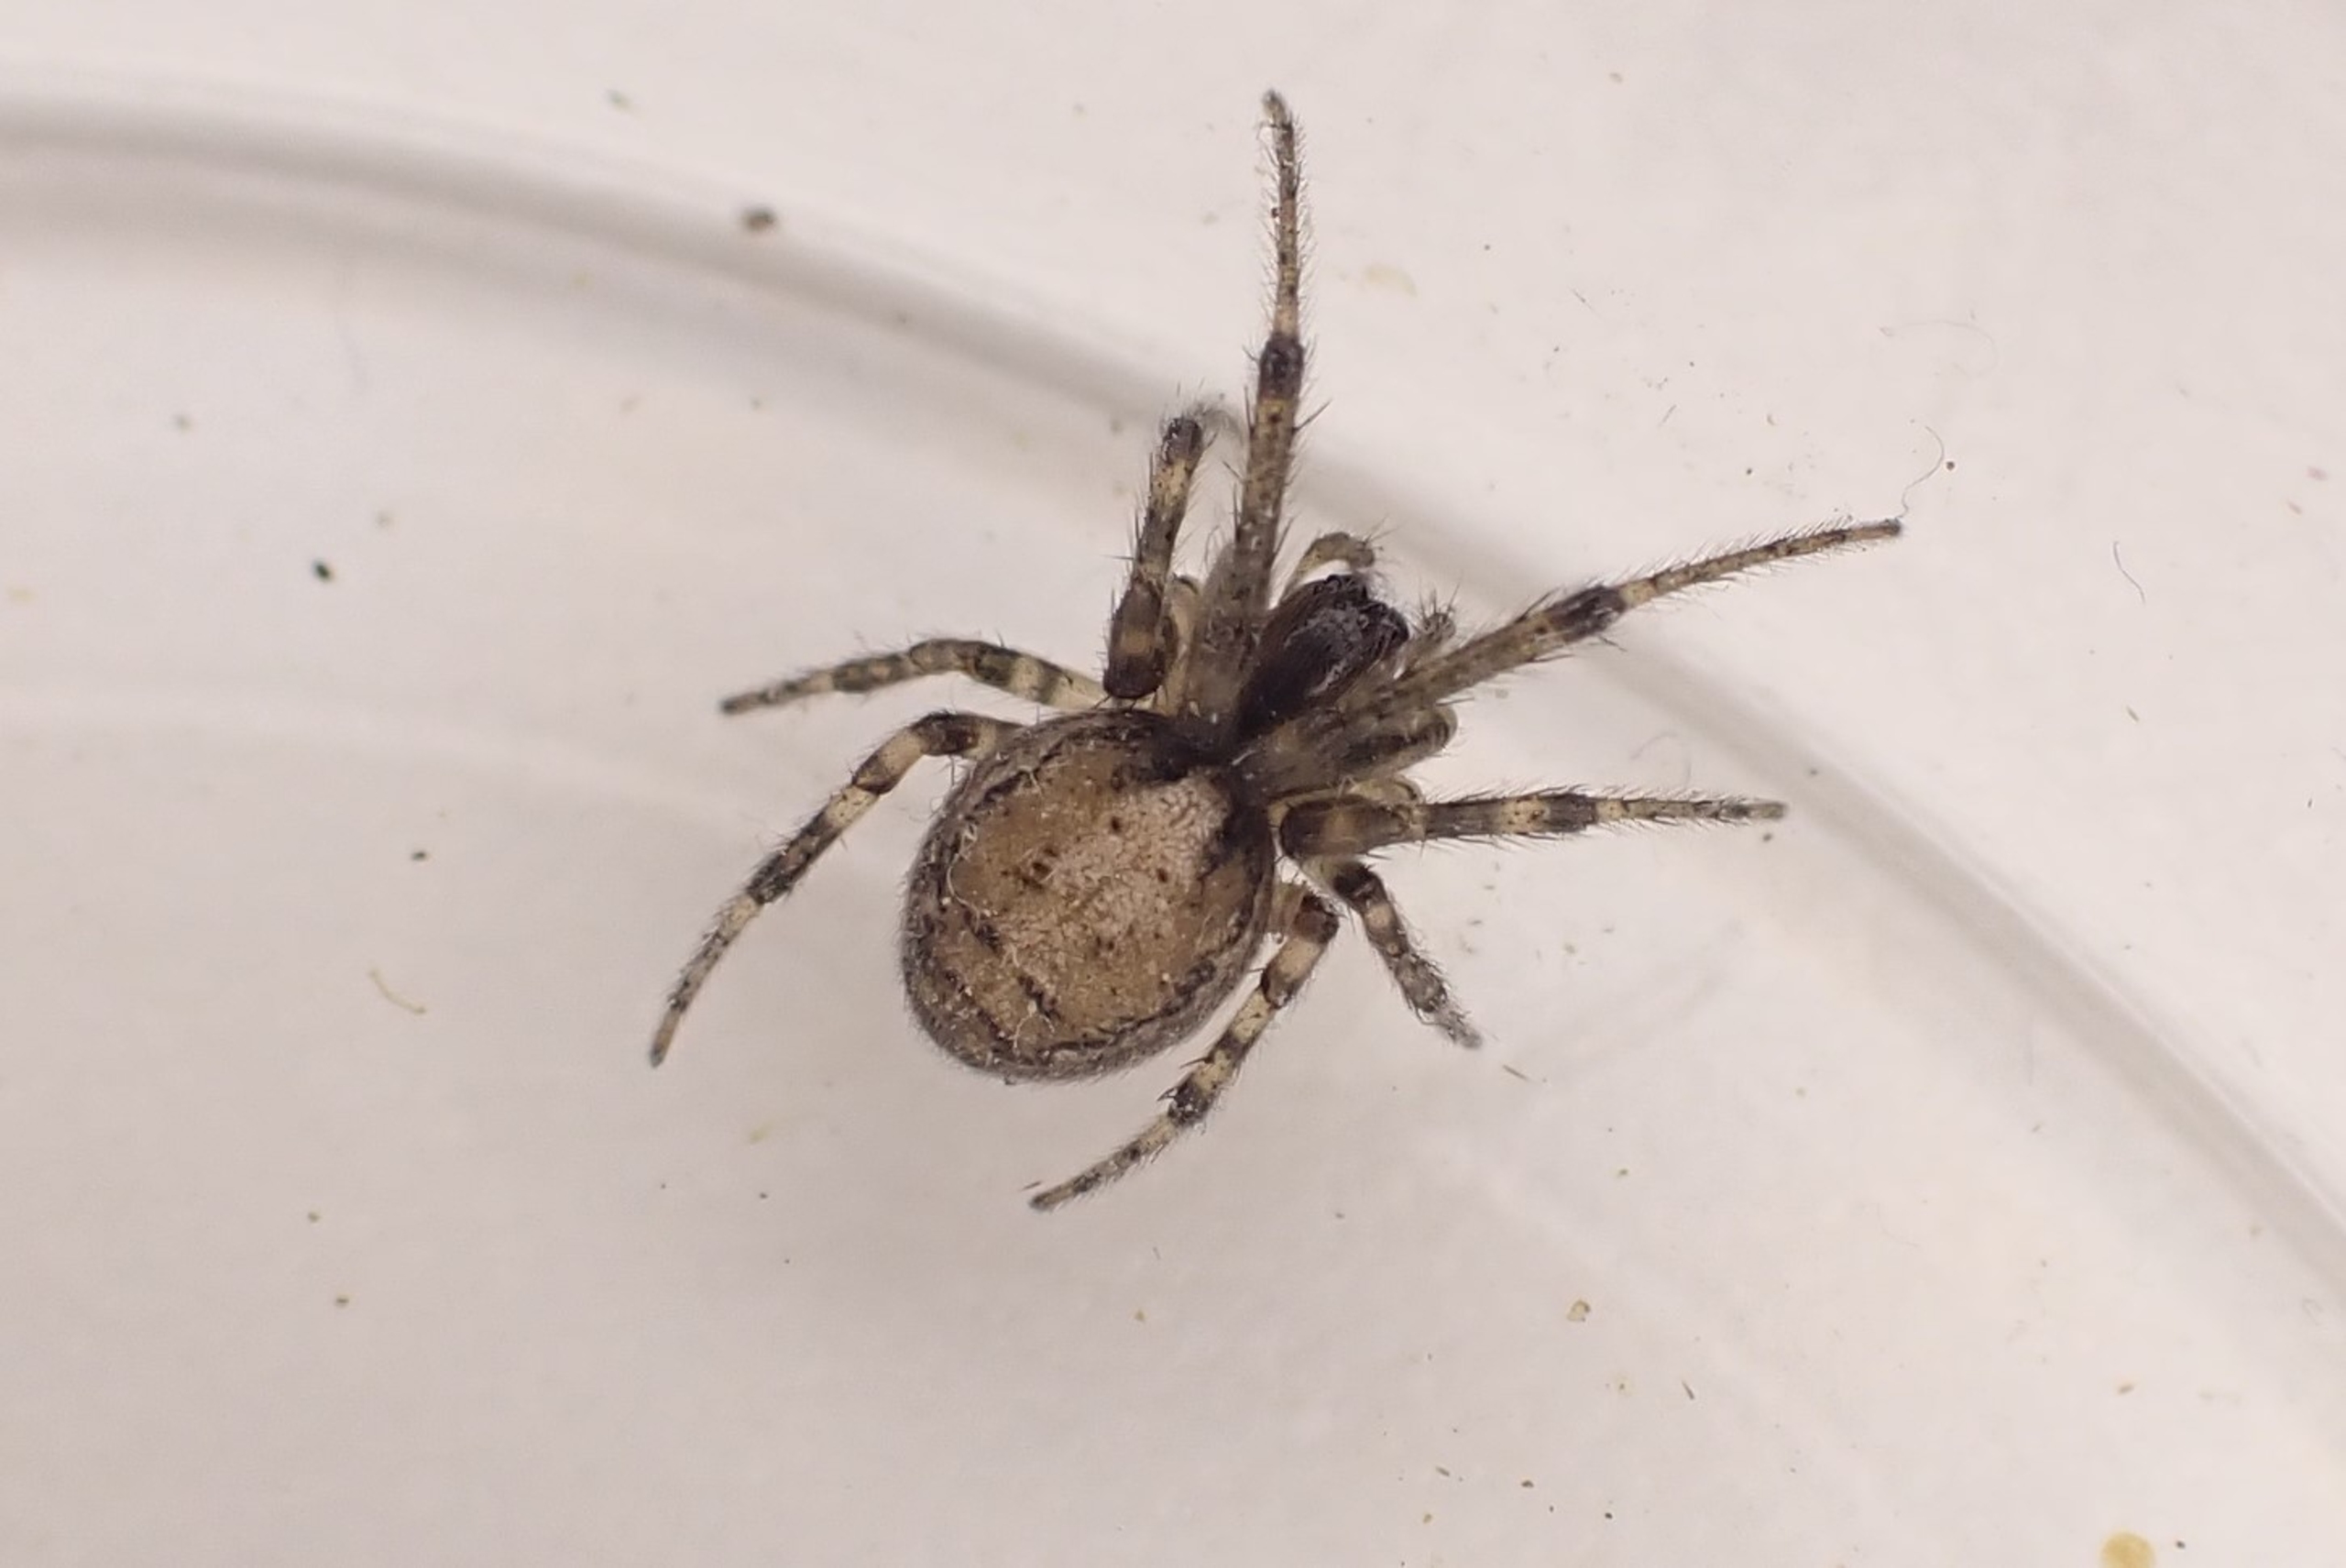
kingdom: Animalia
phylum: Arthropoda
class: Arachnida
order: Araneae
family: Araneidae
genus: Zygiella
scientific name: Zygiella x-notata
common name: Grå sektoredderkop
